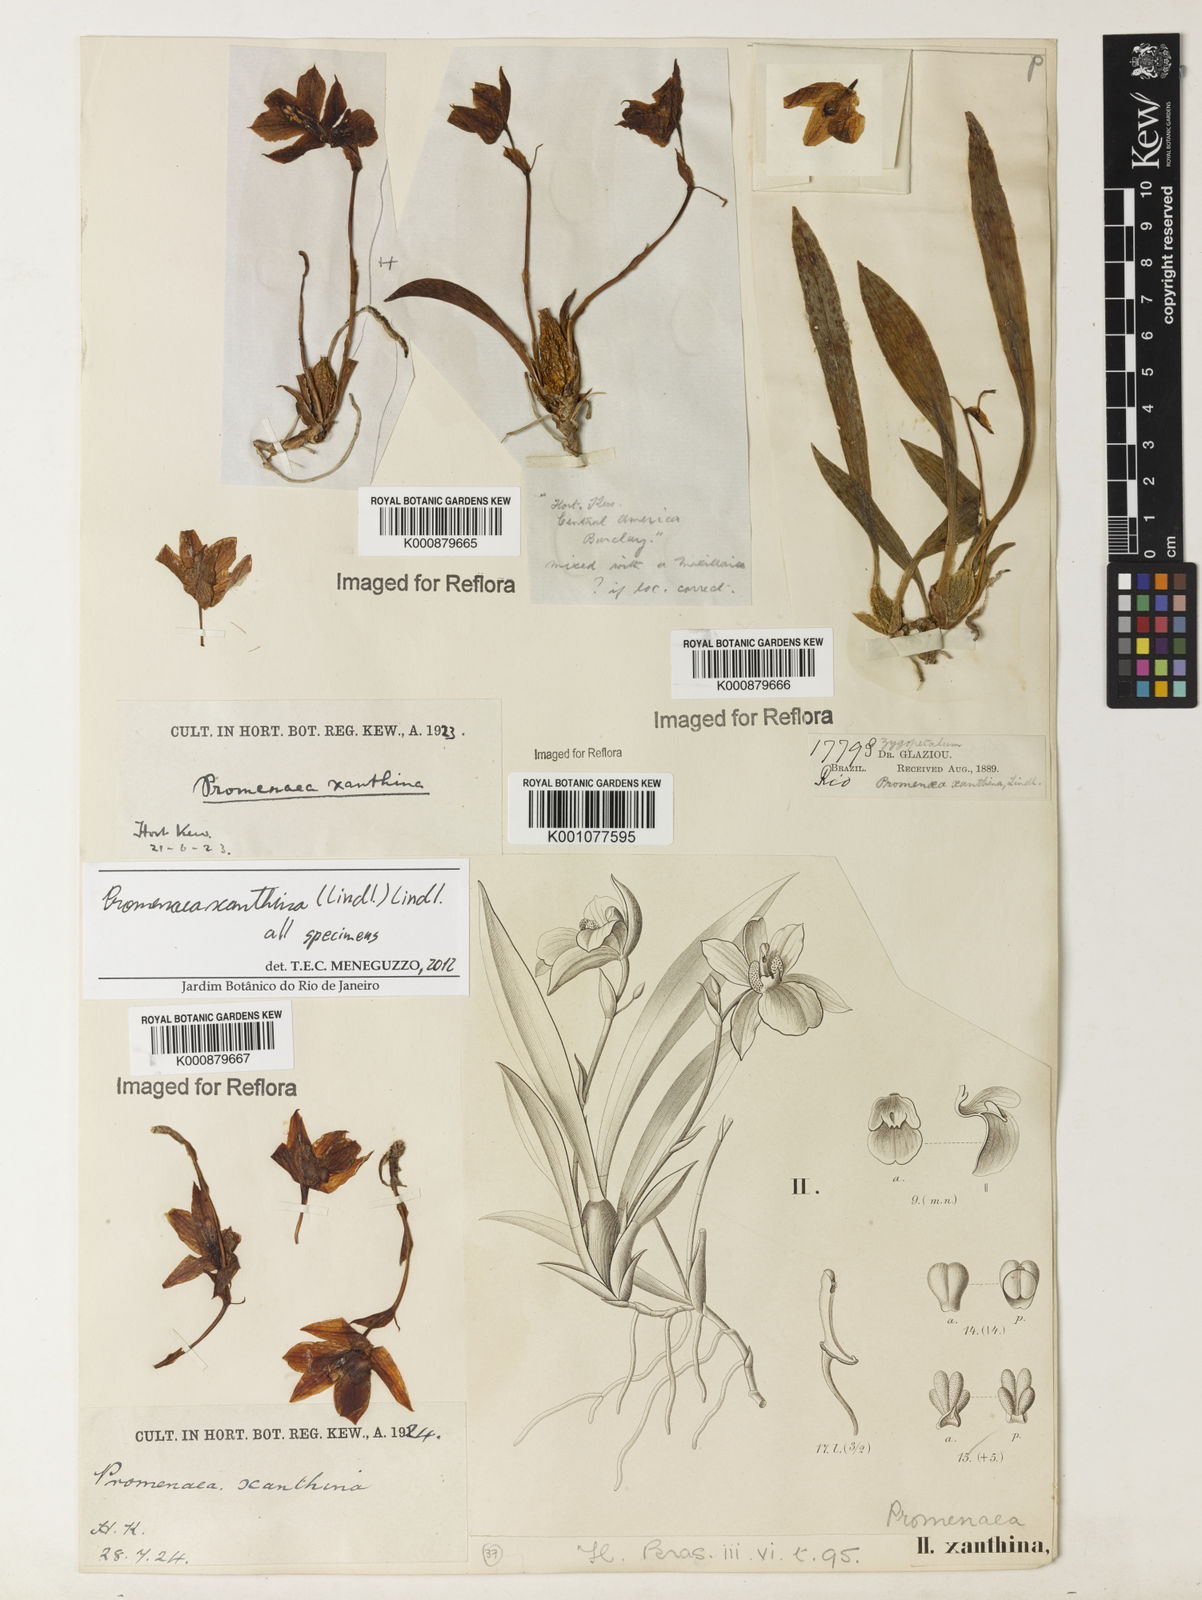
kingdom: Plantae
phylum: Tracheophyta
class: Liliopsida
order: Asparagales
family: Orchidaceae
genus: Promenaea
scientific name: Promenaea xanthina
